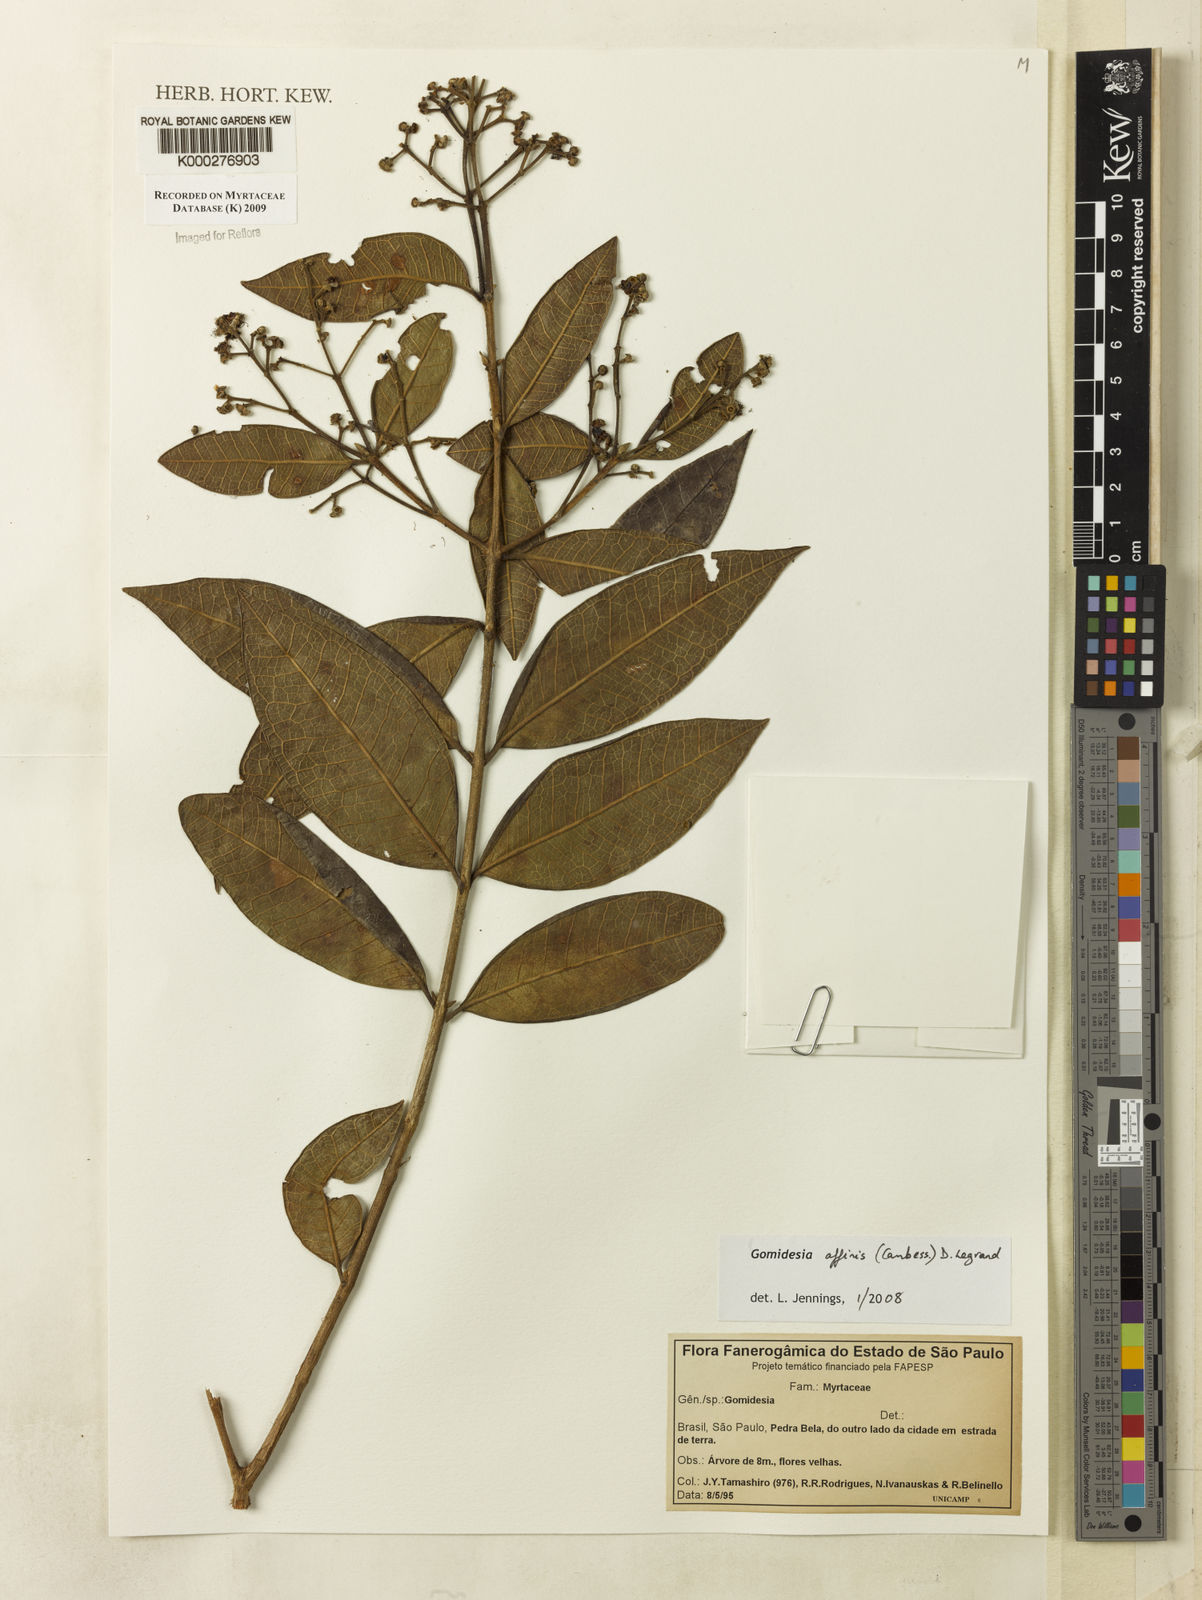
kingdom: Plantae
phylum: Tracheophyta
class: Magnoliopsida
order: Myrtales
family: Myrtaceae
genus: Myrcia
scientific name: Myrcia hebepetala
